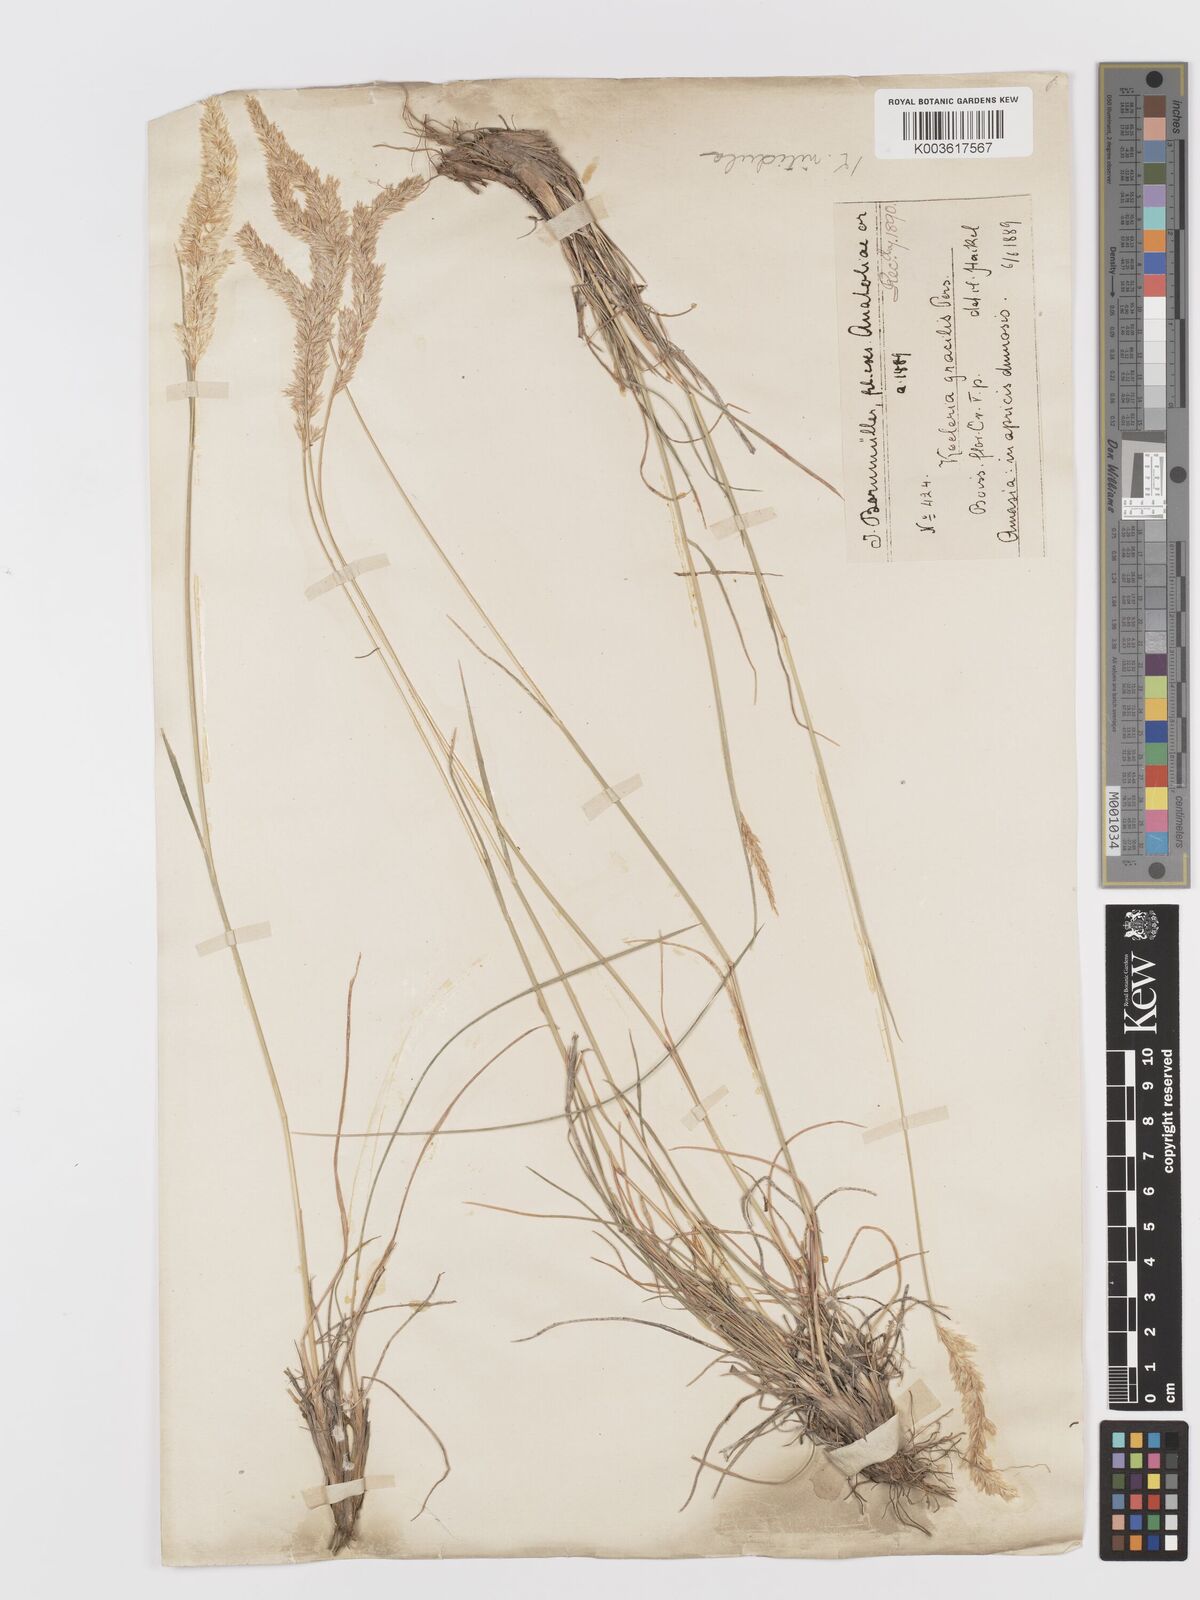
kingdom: Plantae
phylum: Tracheophyta
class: Liliopsida
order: Poales
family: Poaceae
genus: Koeleria
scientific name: Koeleria nitidula
